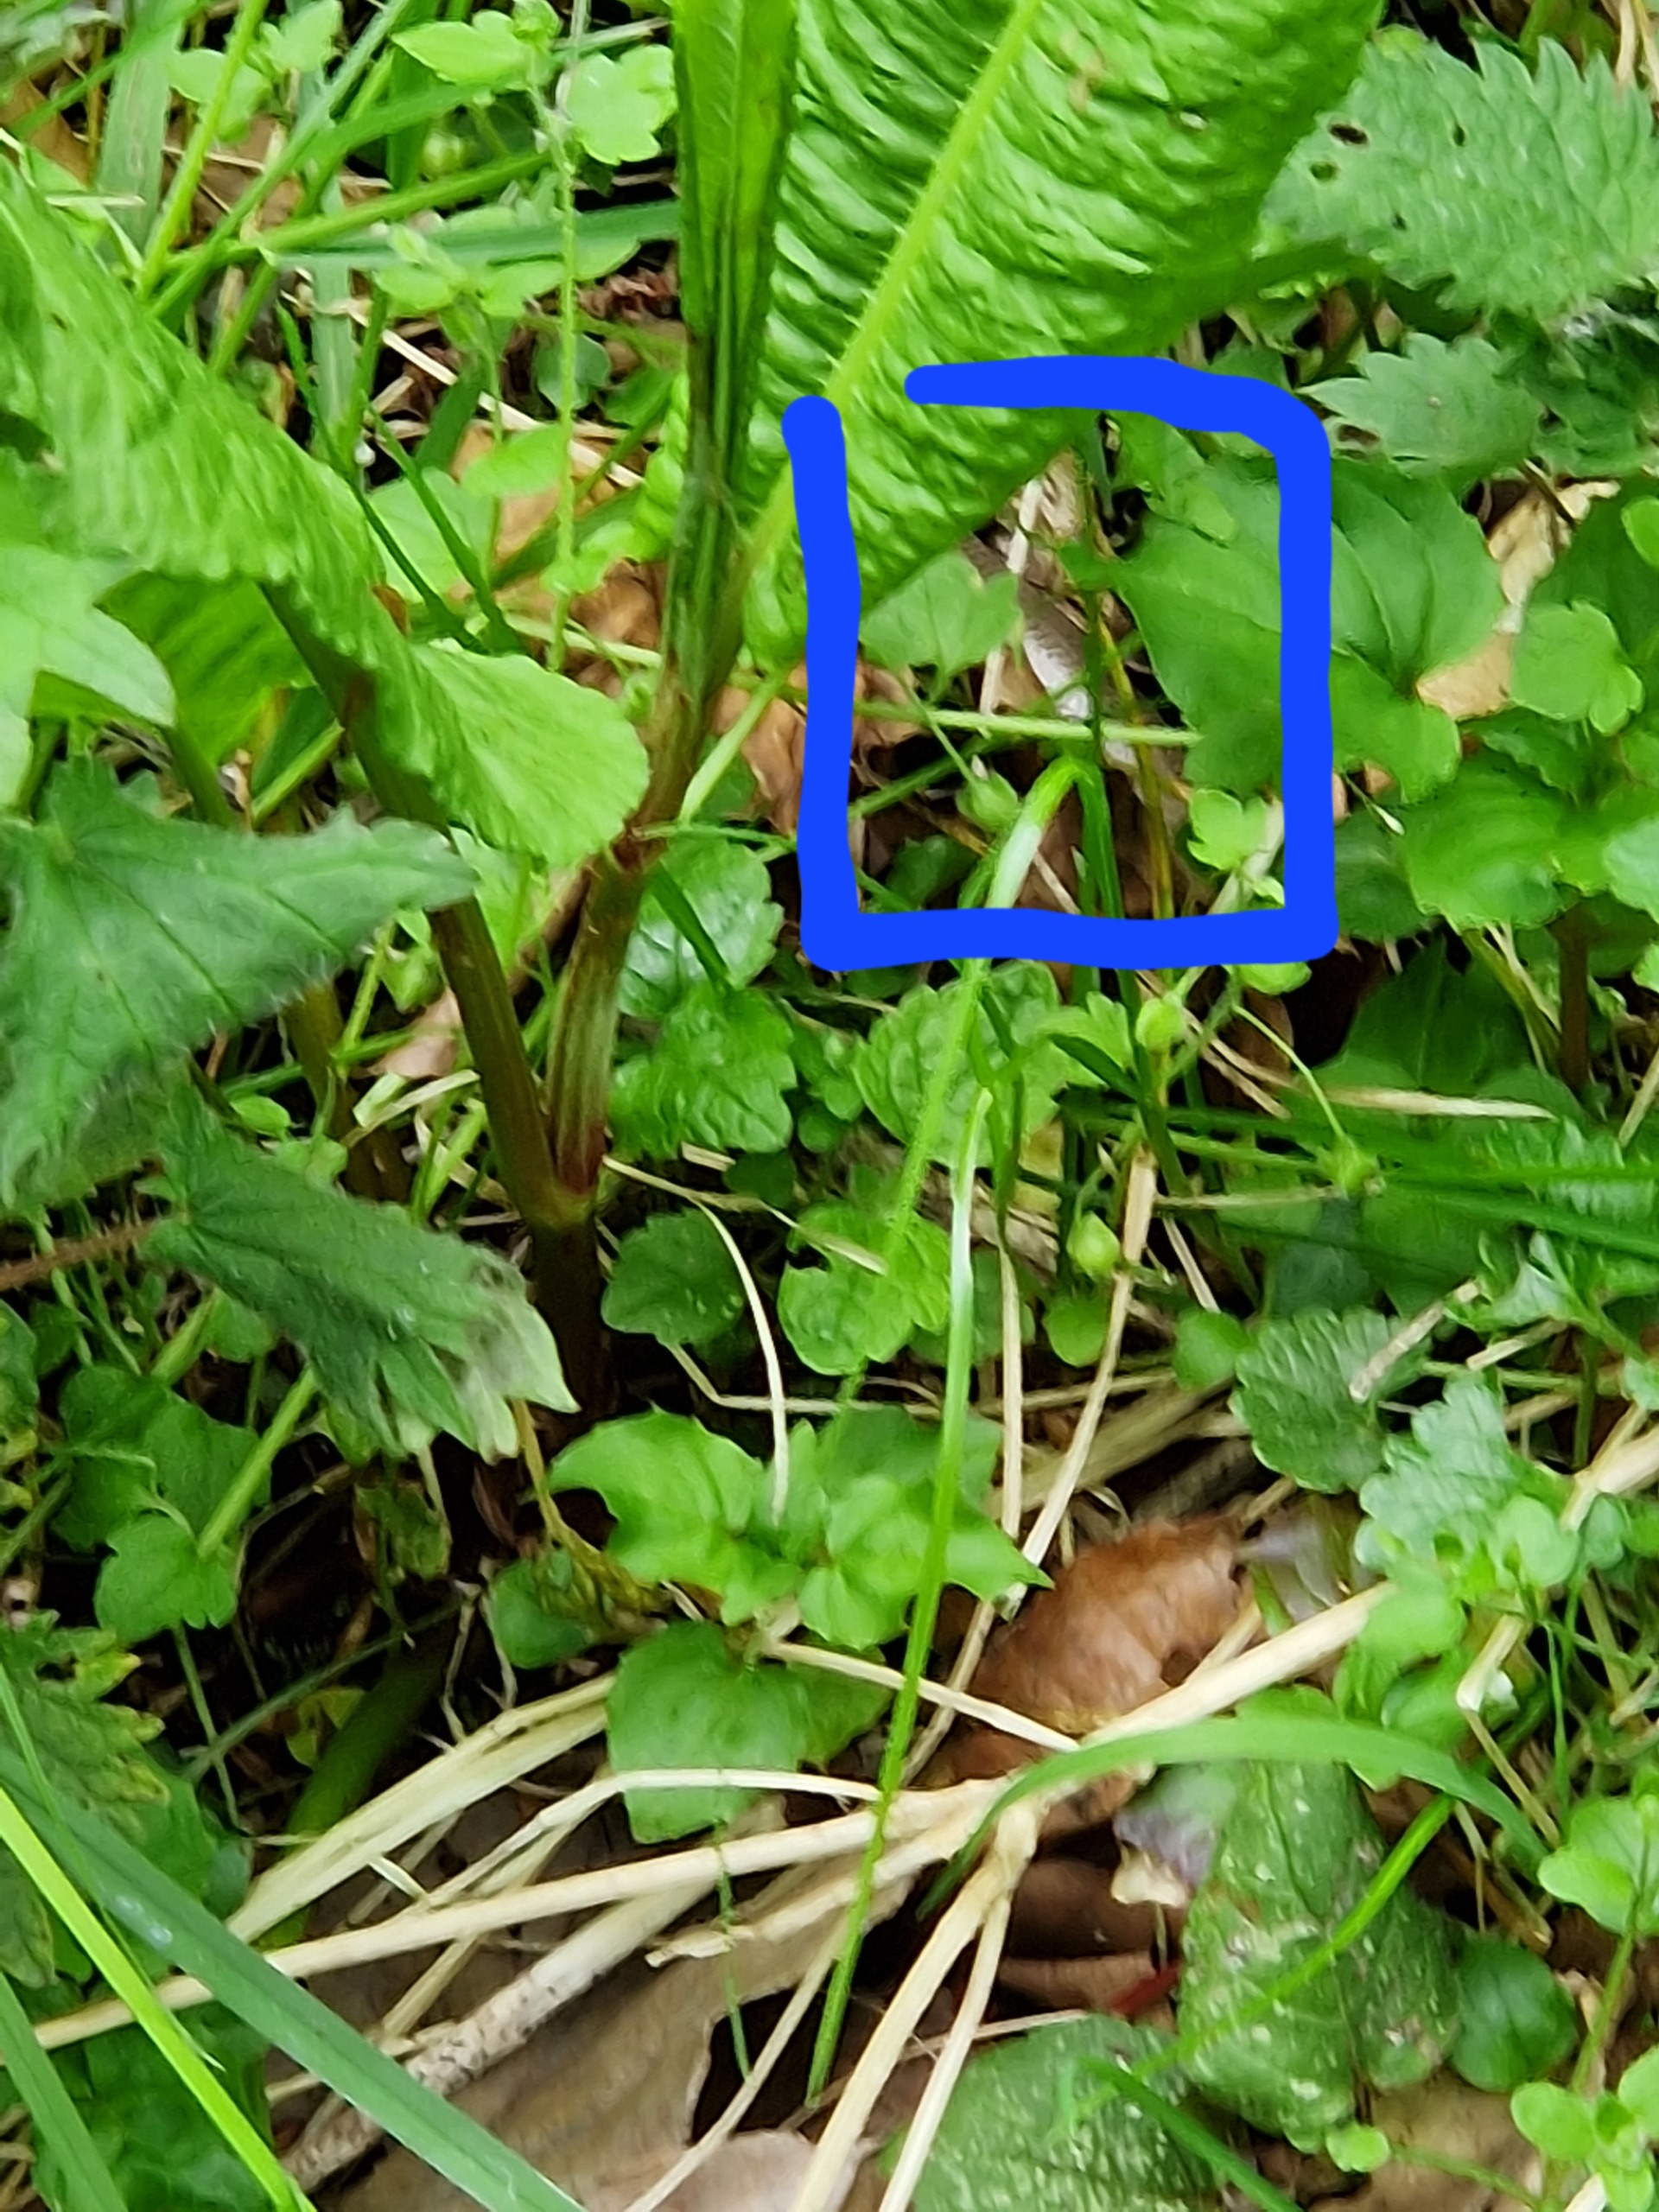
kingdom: Animalia
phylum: Chordata
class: Squamata
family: Anguidae
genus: Anguis
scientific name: Anguis fragilis
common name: Stålorm
